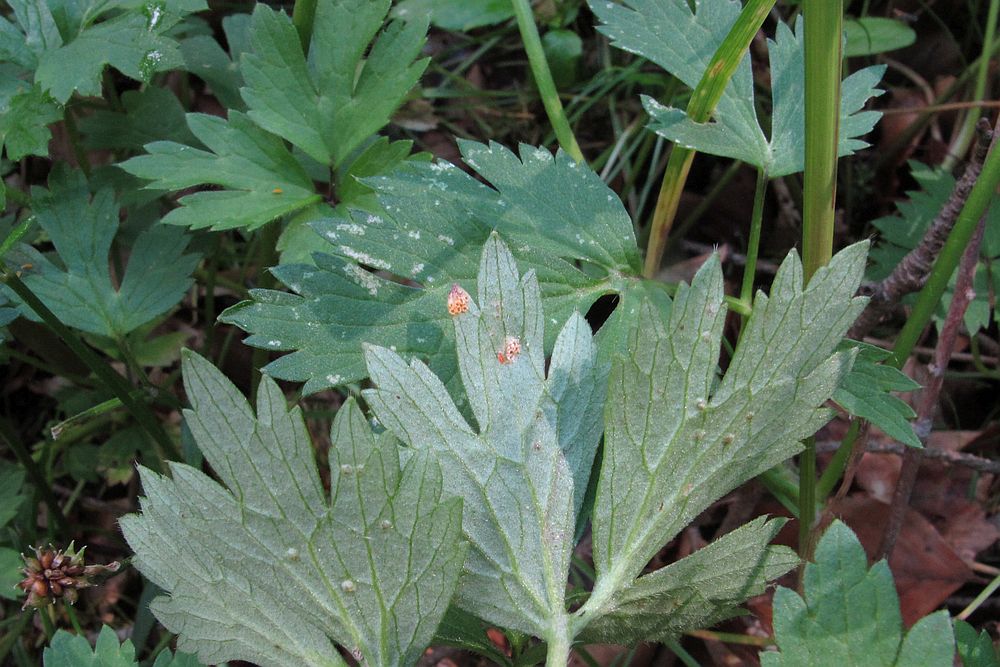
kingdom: Fungi
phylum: Basidiomycota
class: Pucciniomycetes
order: Pucciniales
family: Pucciniaceae
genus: Uromyces
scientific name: Uromyces dactylidis
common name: ranunkel-encellerust
